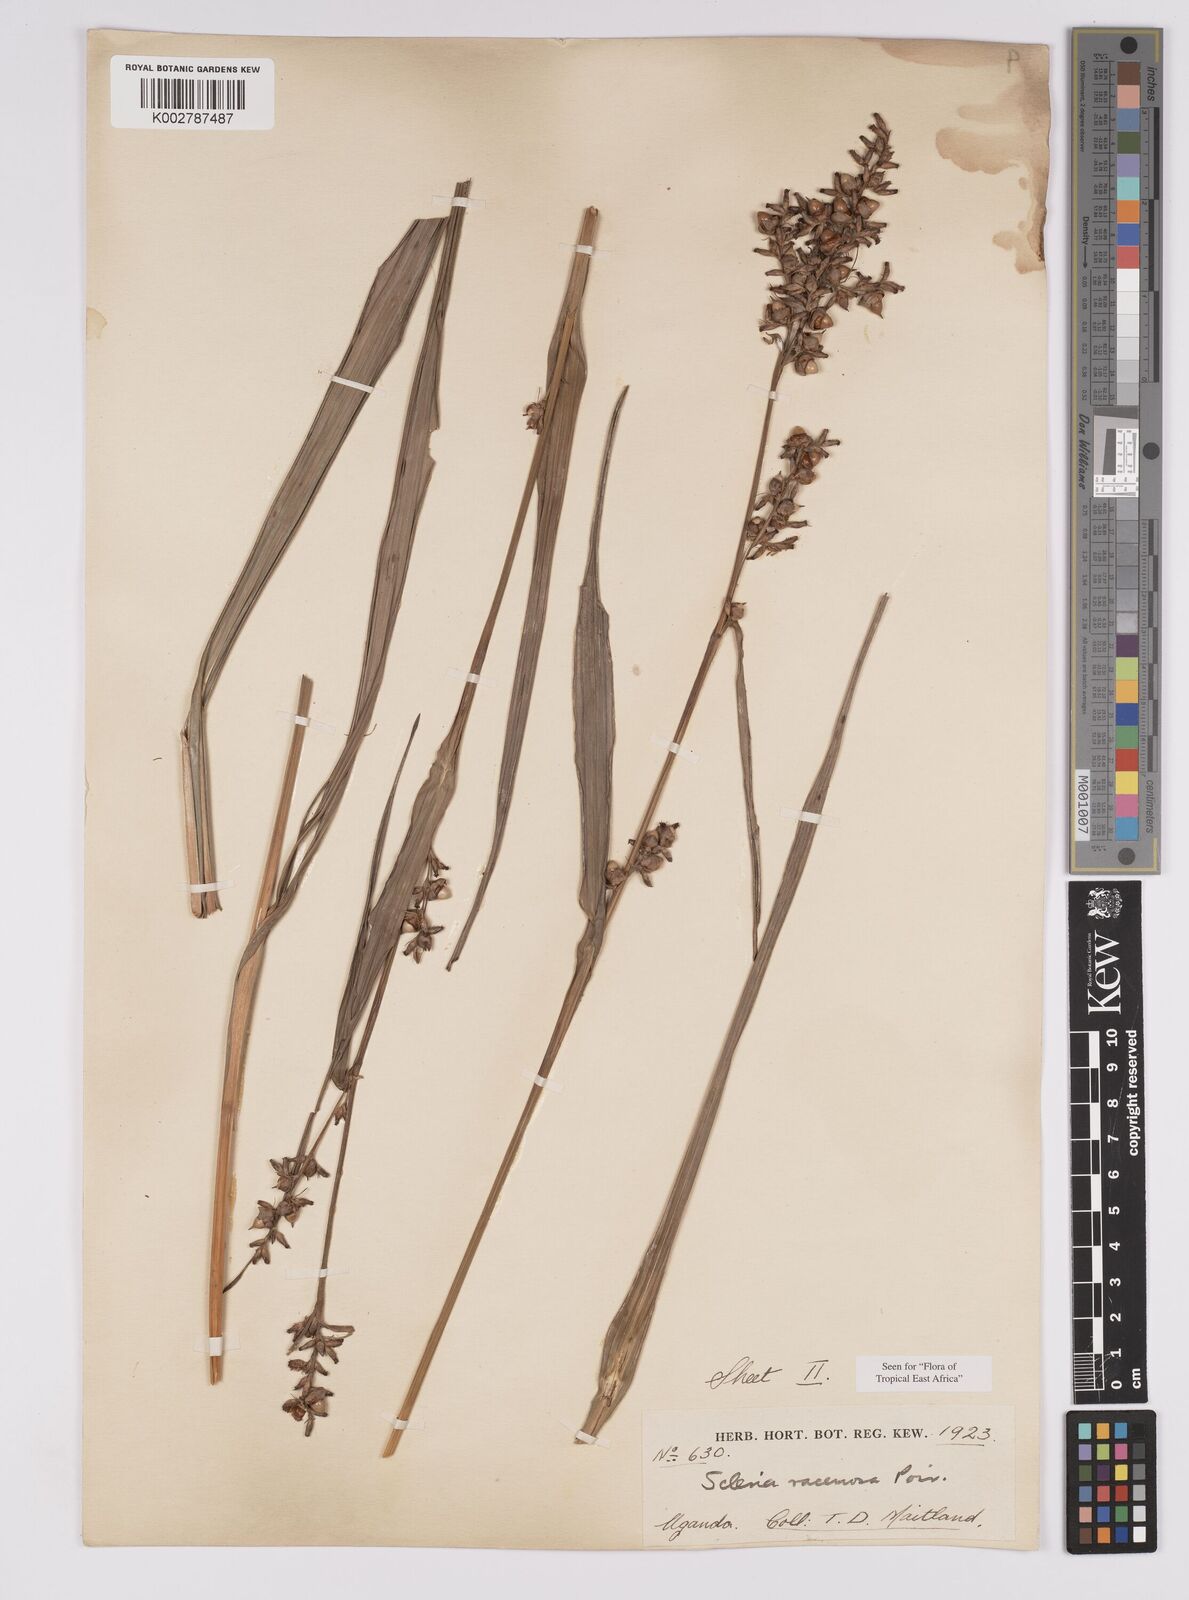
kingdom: Plantae
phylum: Tracheophyta
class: Liliopsida
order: Poales
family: Cyperaceae
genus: Scleria
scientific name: Scleria racemosa
